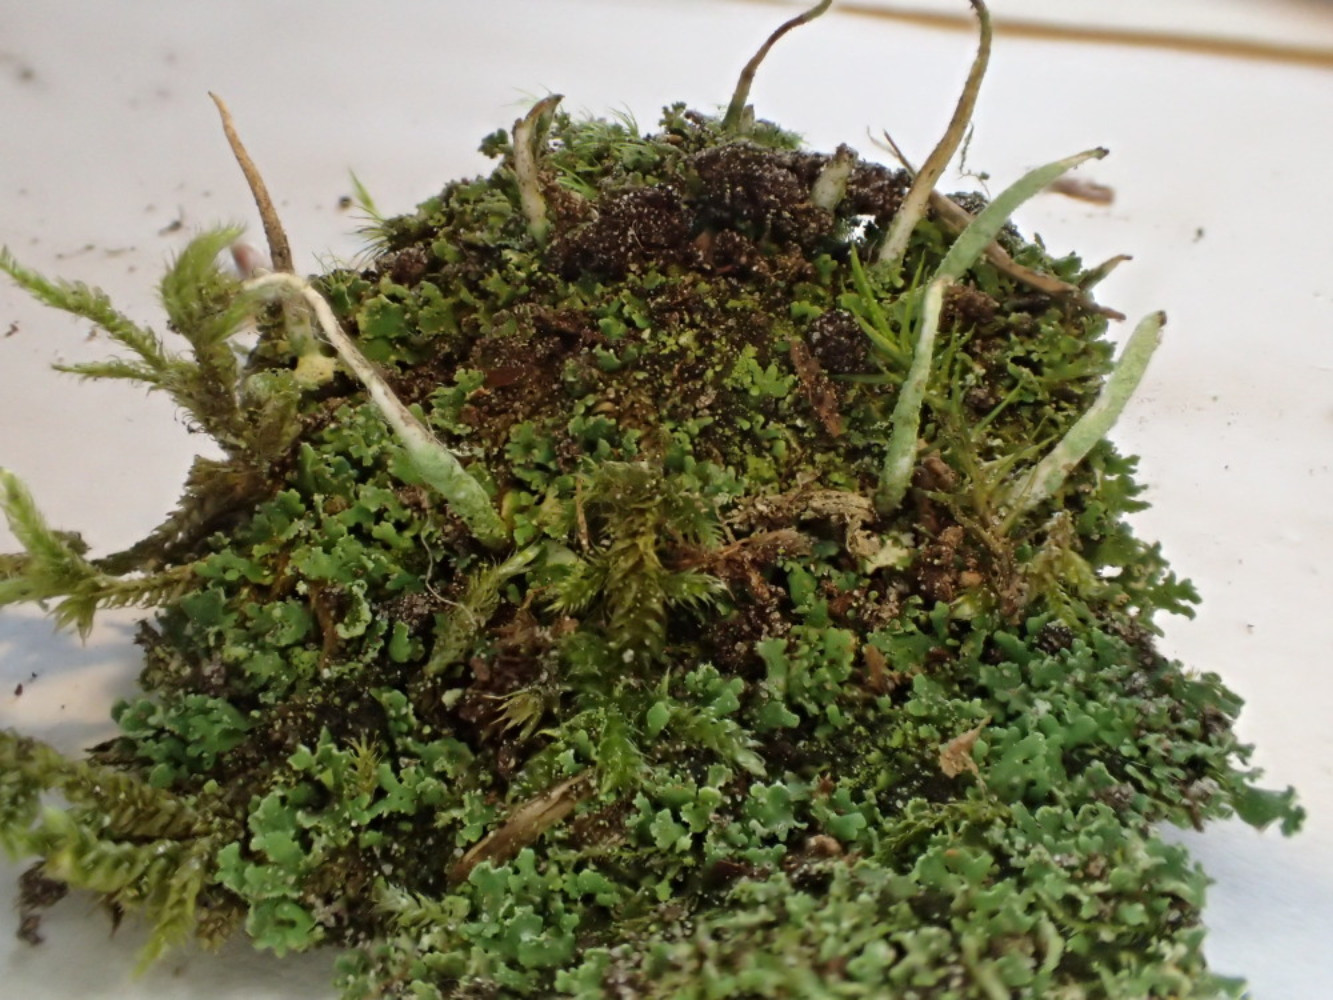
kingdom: Fungi
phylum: Ascomycota
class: Lecanoromycetes
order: Lecanorales
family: Cladoniaceae
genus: Cladonia
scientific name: Cladonia coniocraea
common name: træfods-bægerlav
